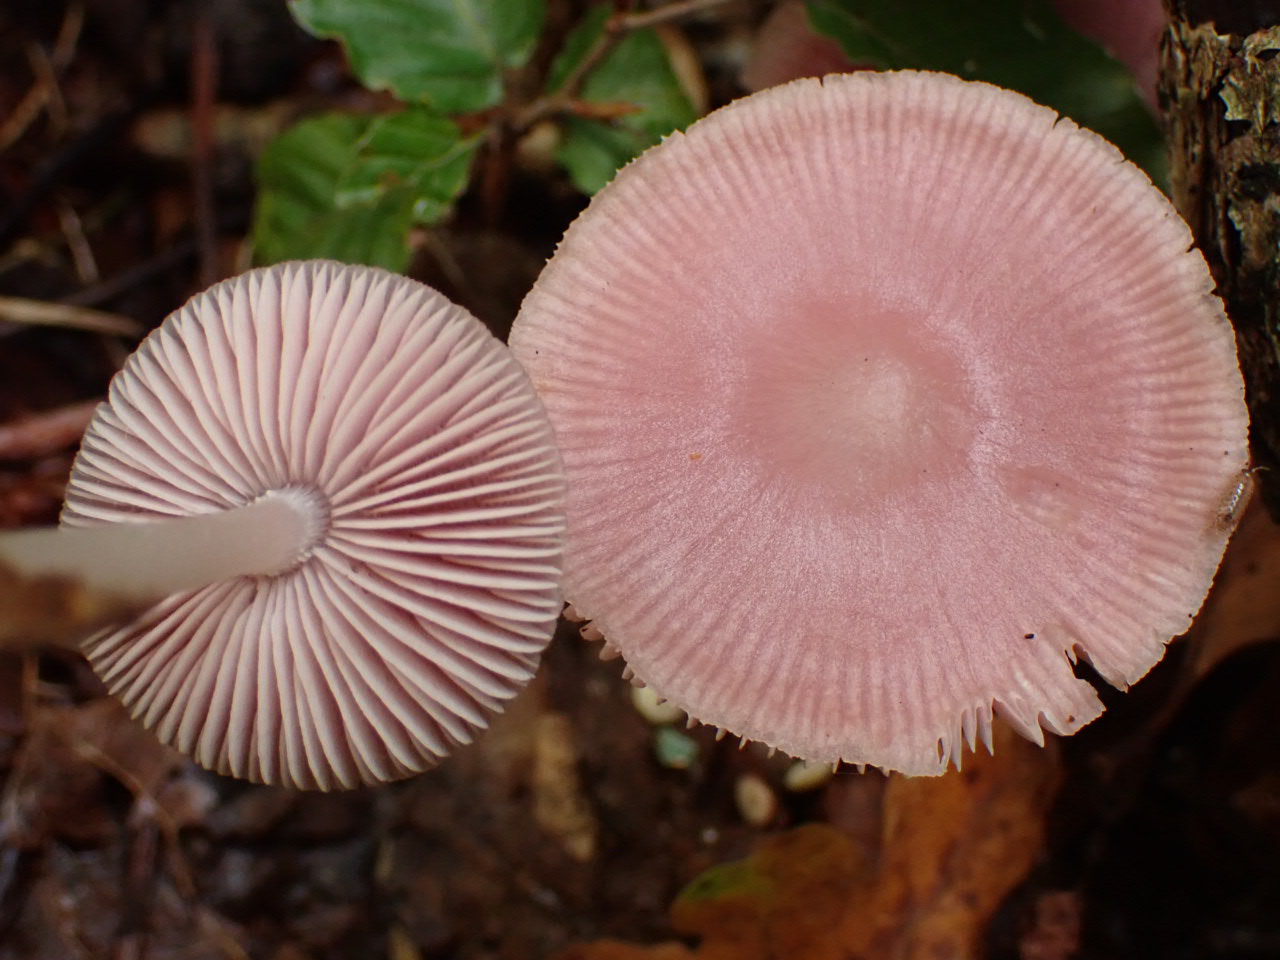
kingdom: Fungi
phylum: Basidiomycota
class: Agaricomycetes
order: Agaricales
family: Mycenaceae
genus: Mycena
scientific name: Mycena rosea
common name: rosa huesvamp
